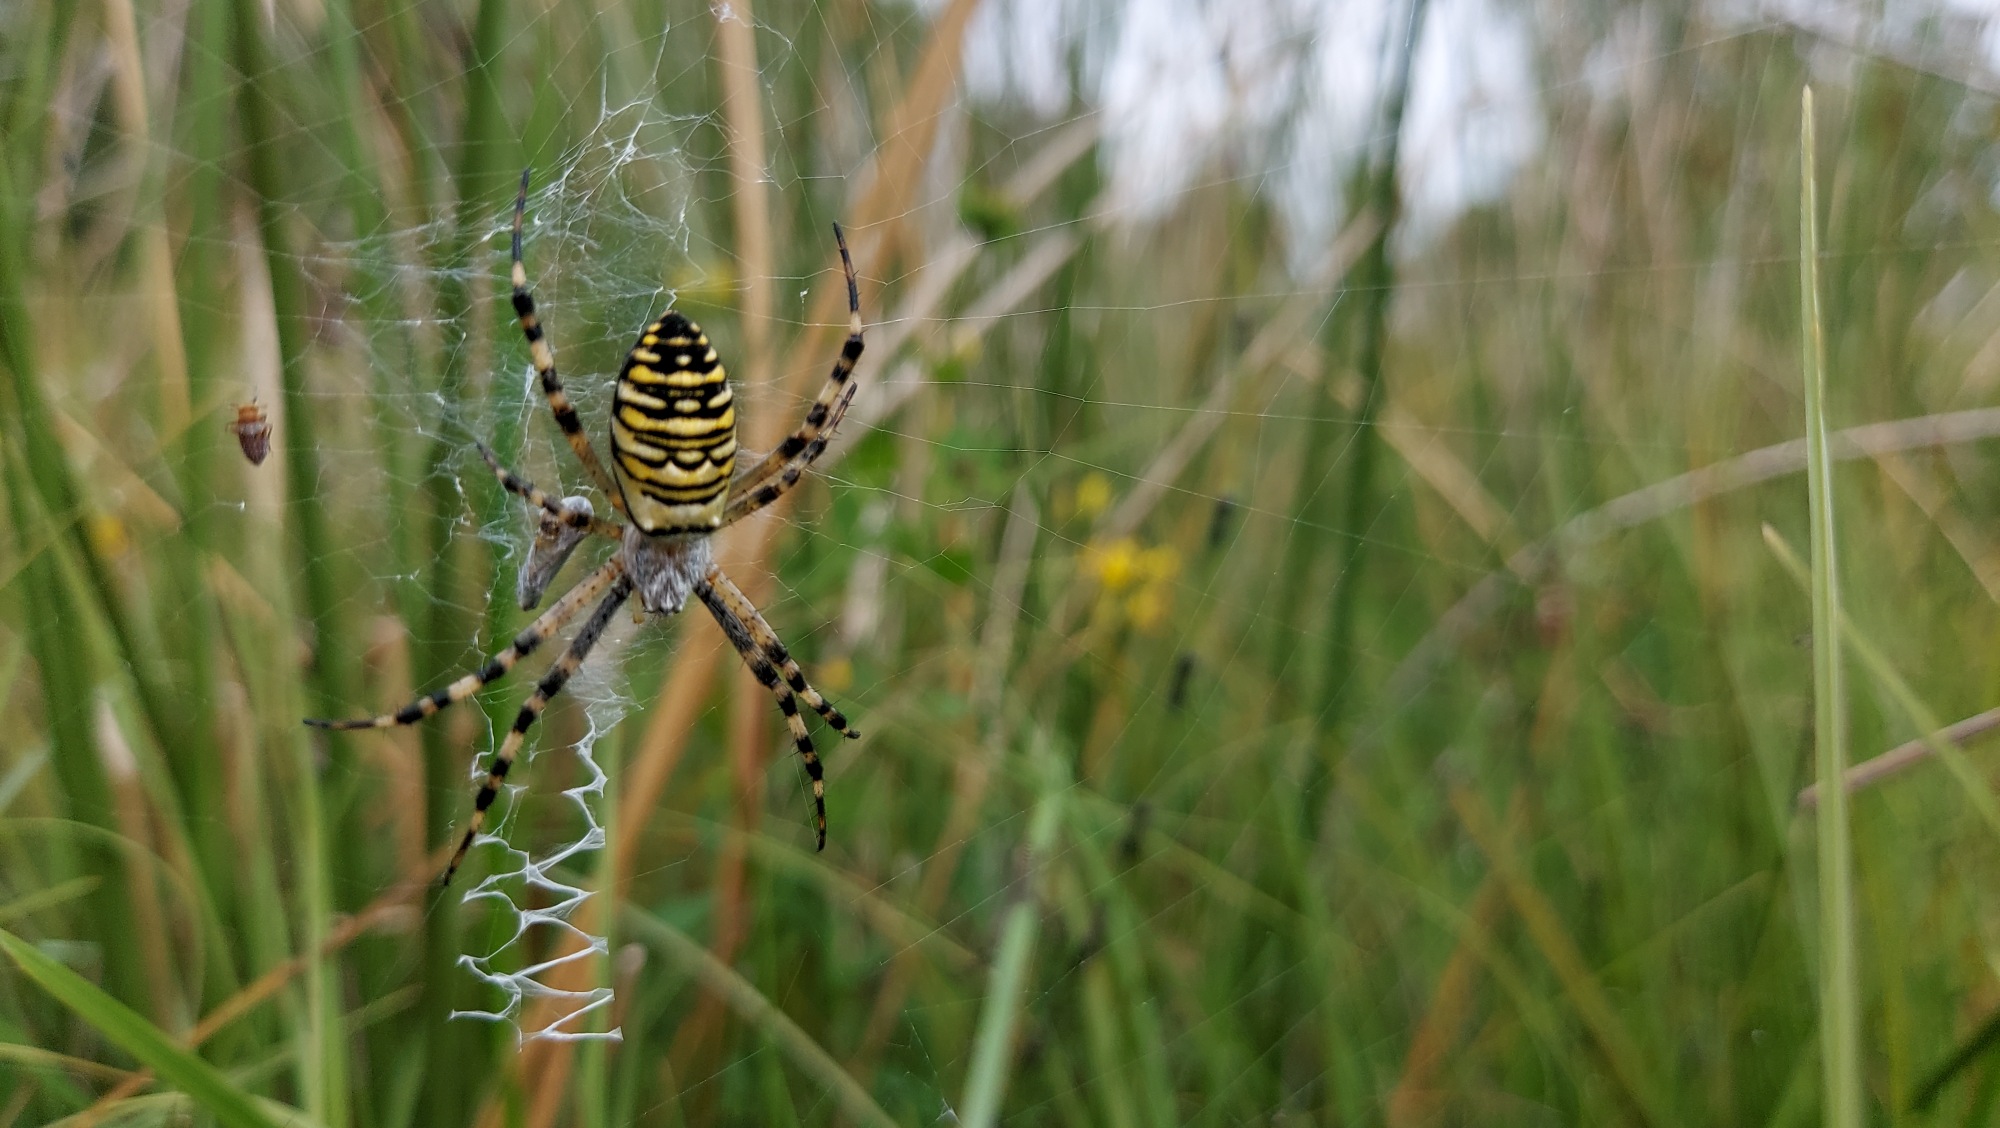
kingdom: Animalia
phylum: Arthropoda
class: Arachnida
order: Araneae
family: Araneidae
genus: Argiope
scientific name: Argiope bruennichi
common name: Hvepseedderkop
